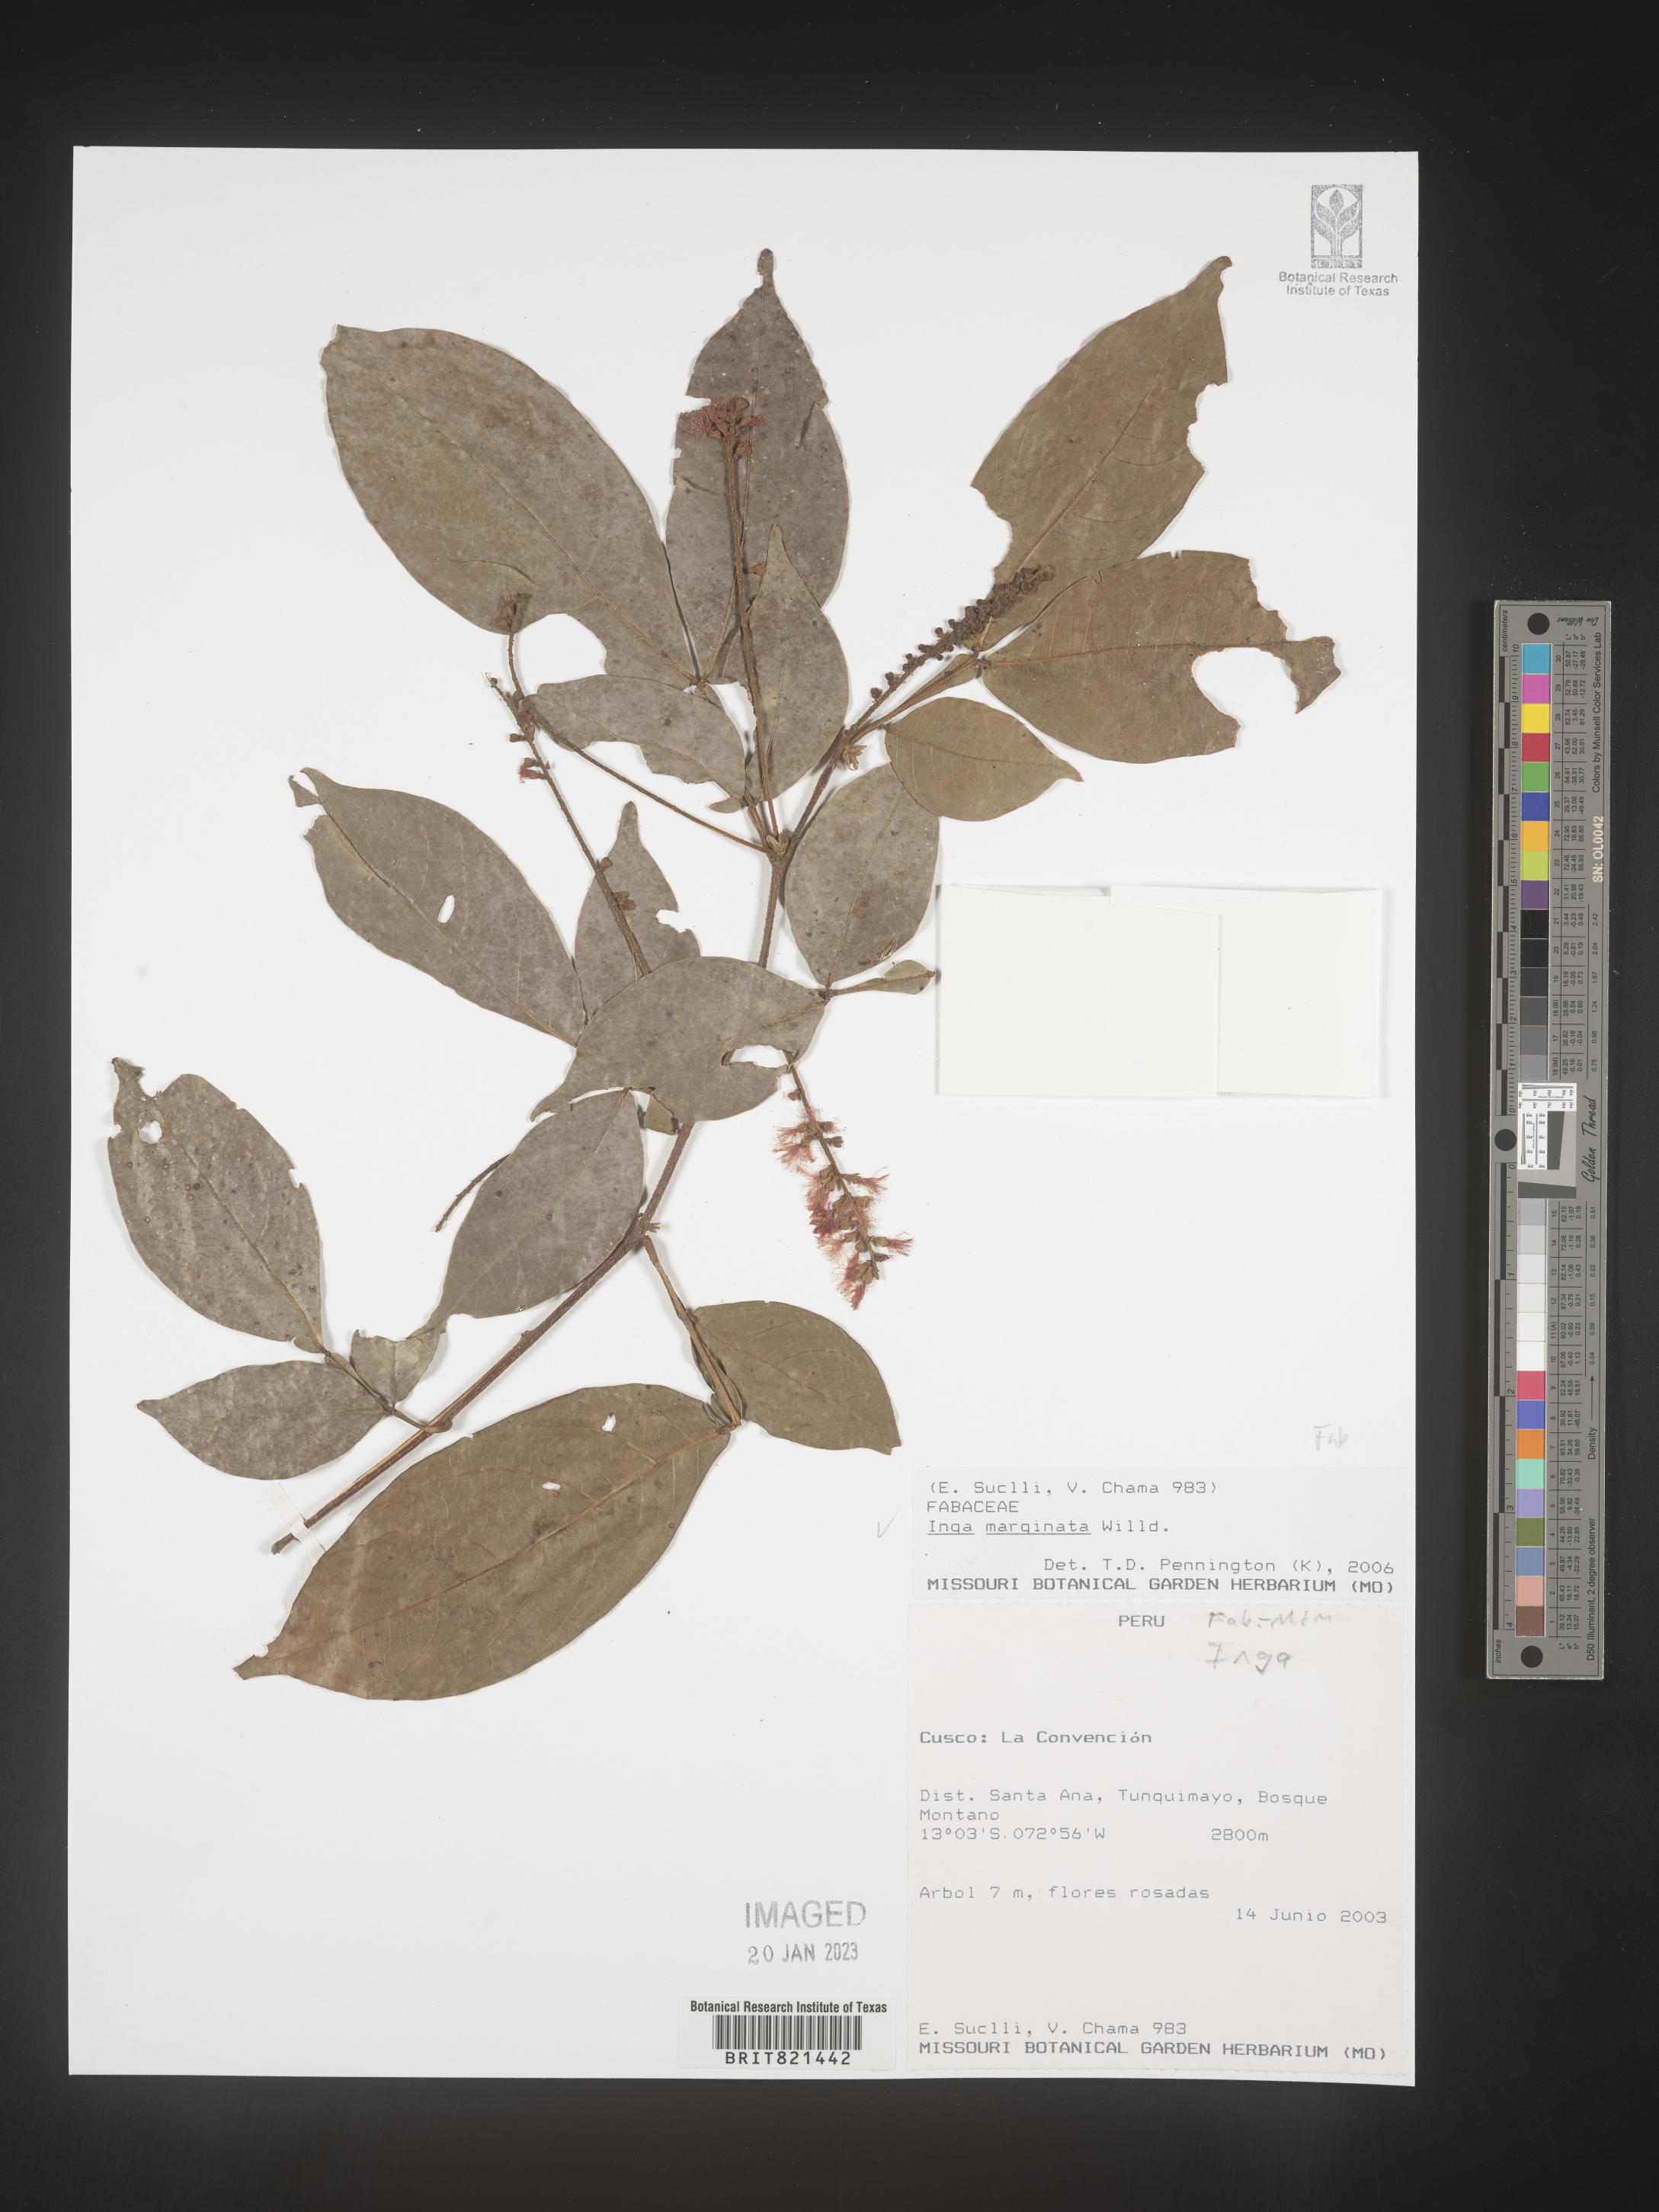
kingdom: Plantae
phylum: Tracheophyta
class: Magnoliopsida
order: Fabales
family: Fabaceae
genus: Inga
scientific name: Inga
